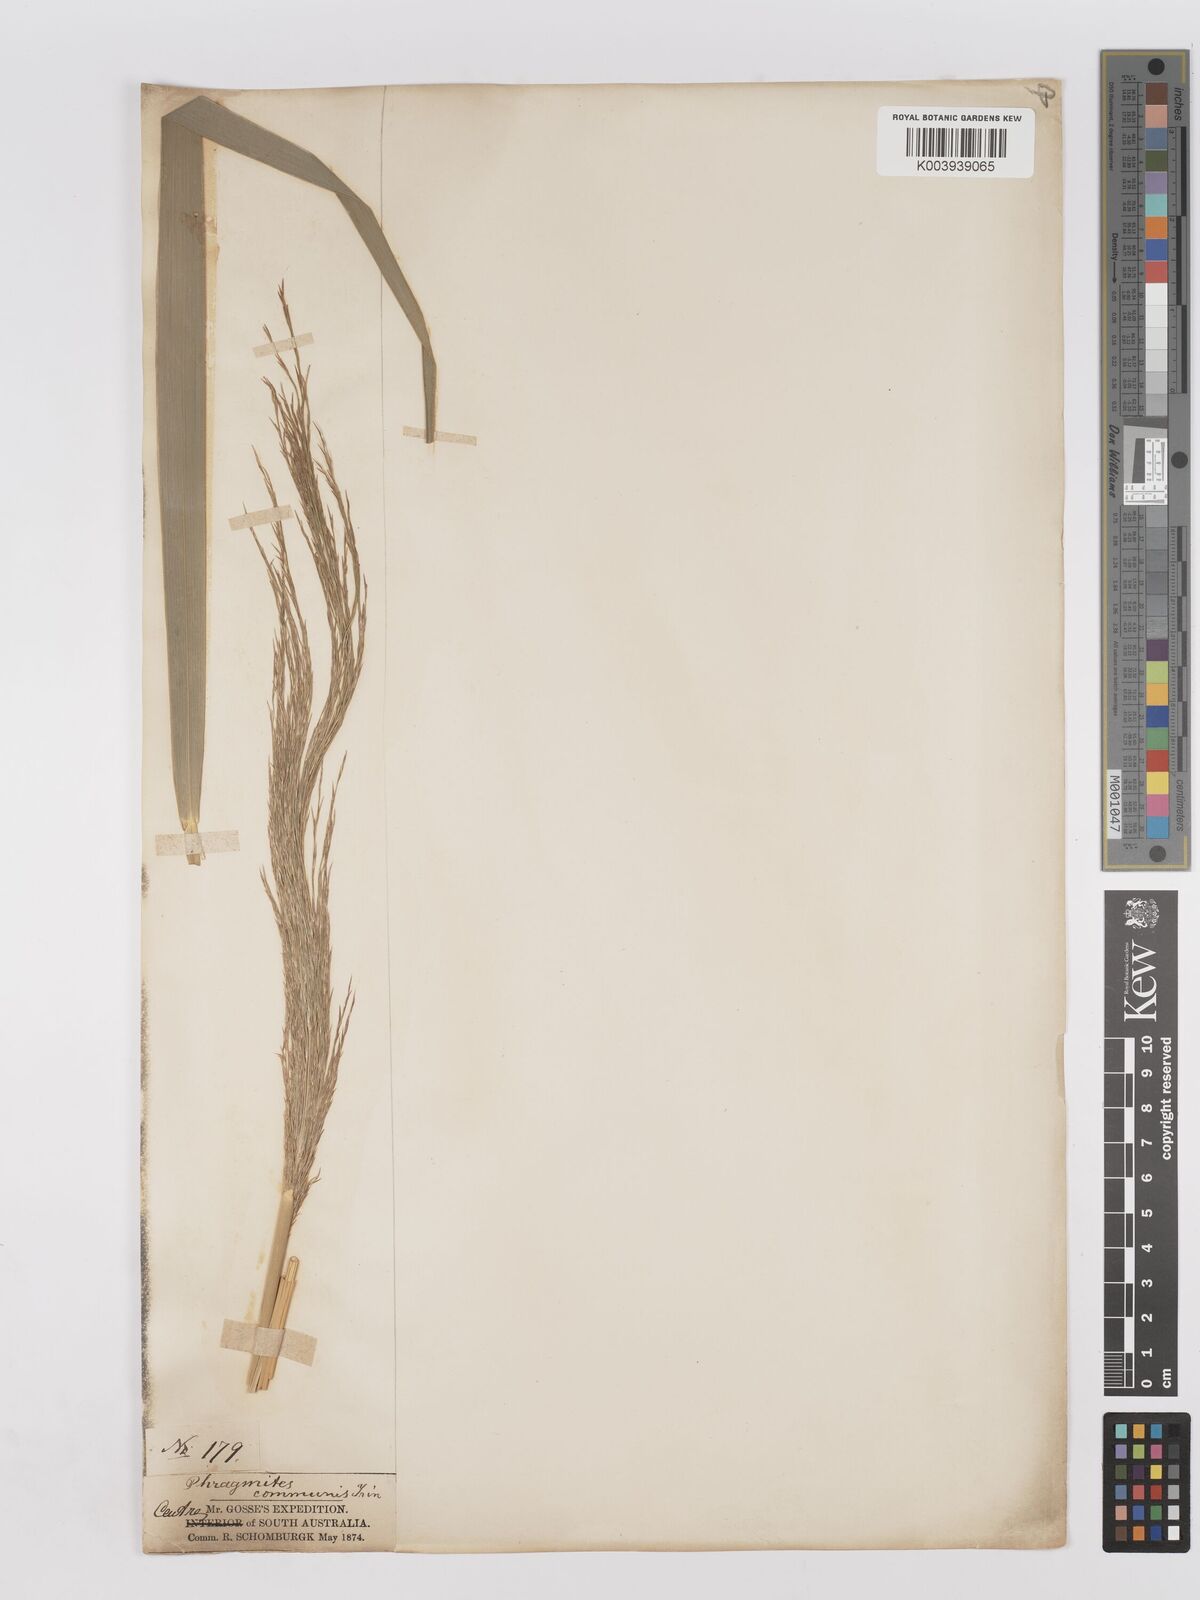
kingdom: Plantae
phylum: Tracheophyta
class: Liliopsida
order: Poales
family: Poaceae
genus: Phragmites
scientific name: Phragmites karka
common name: Tropical reed
